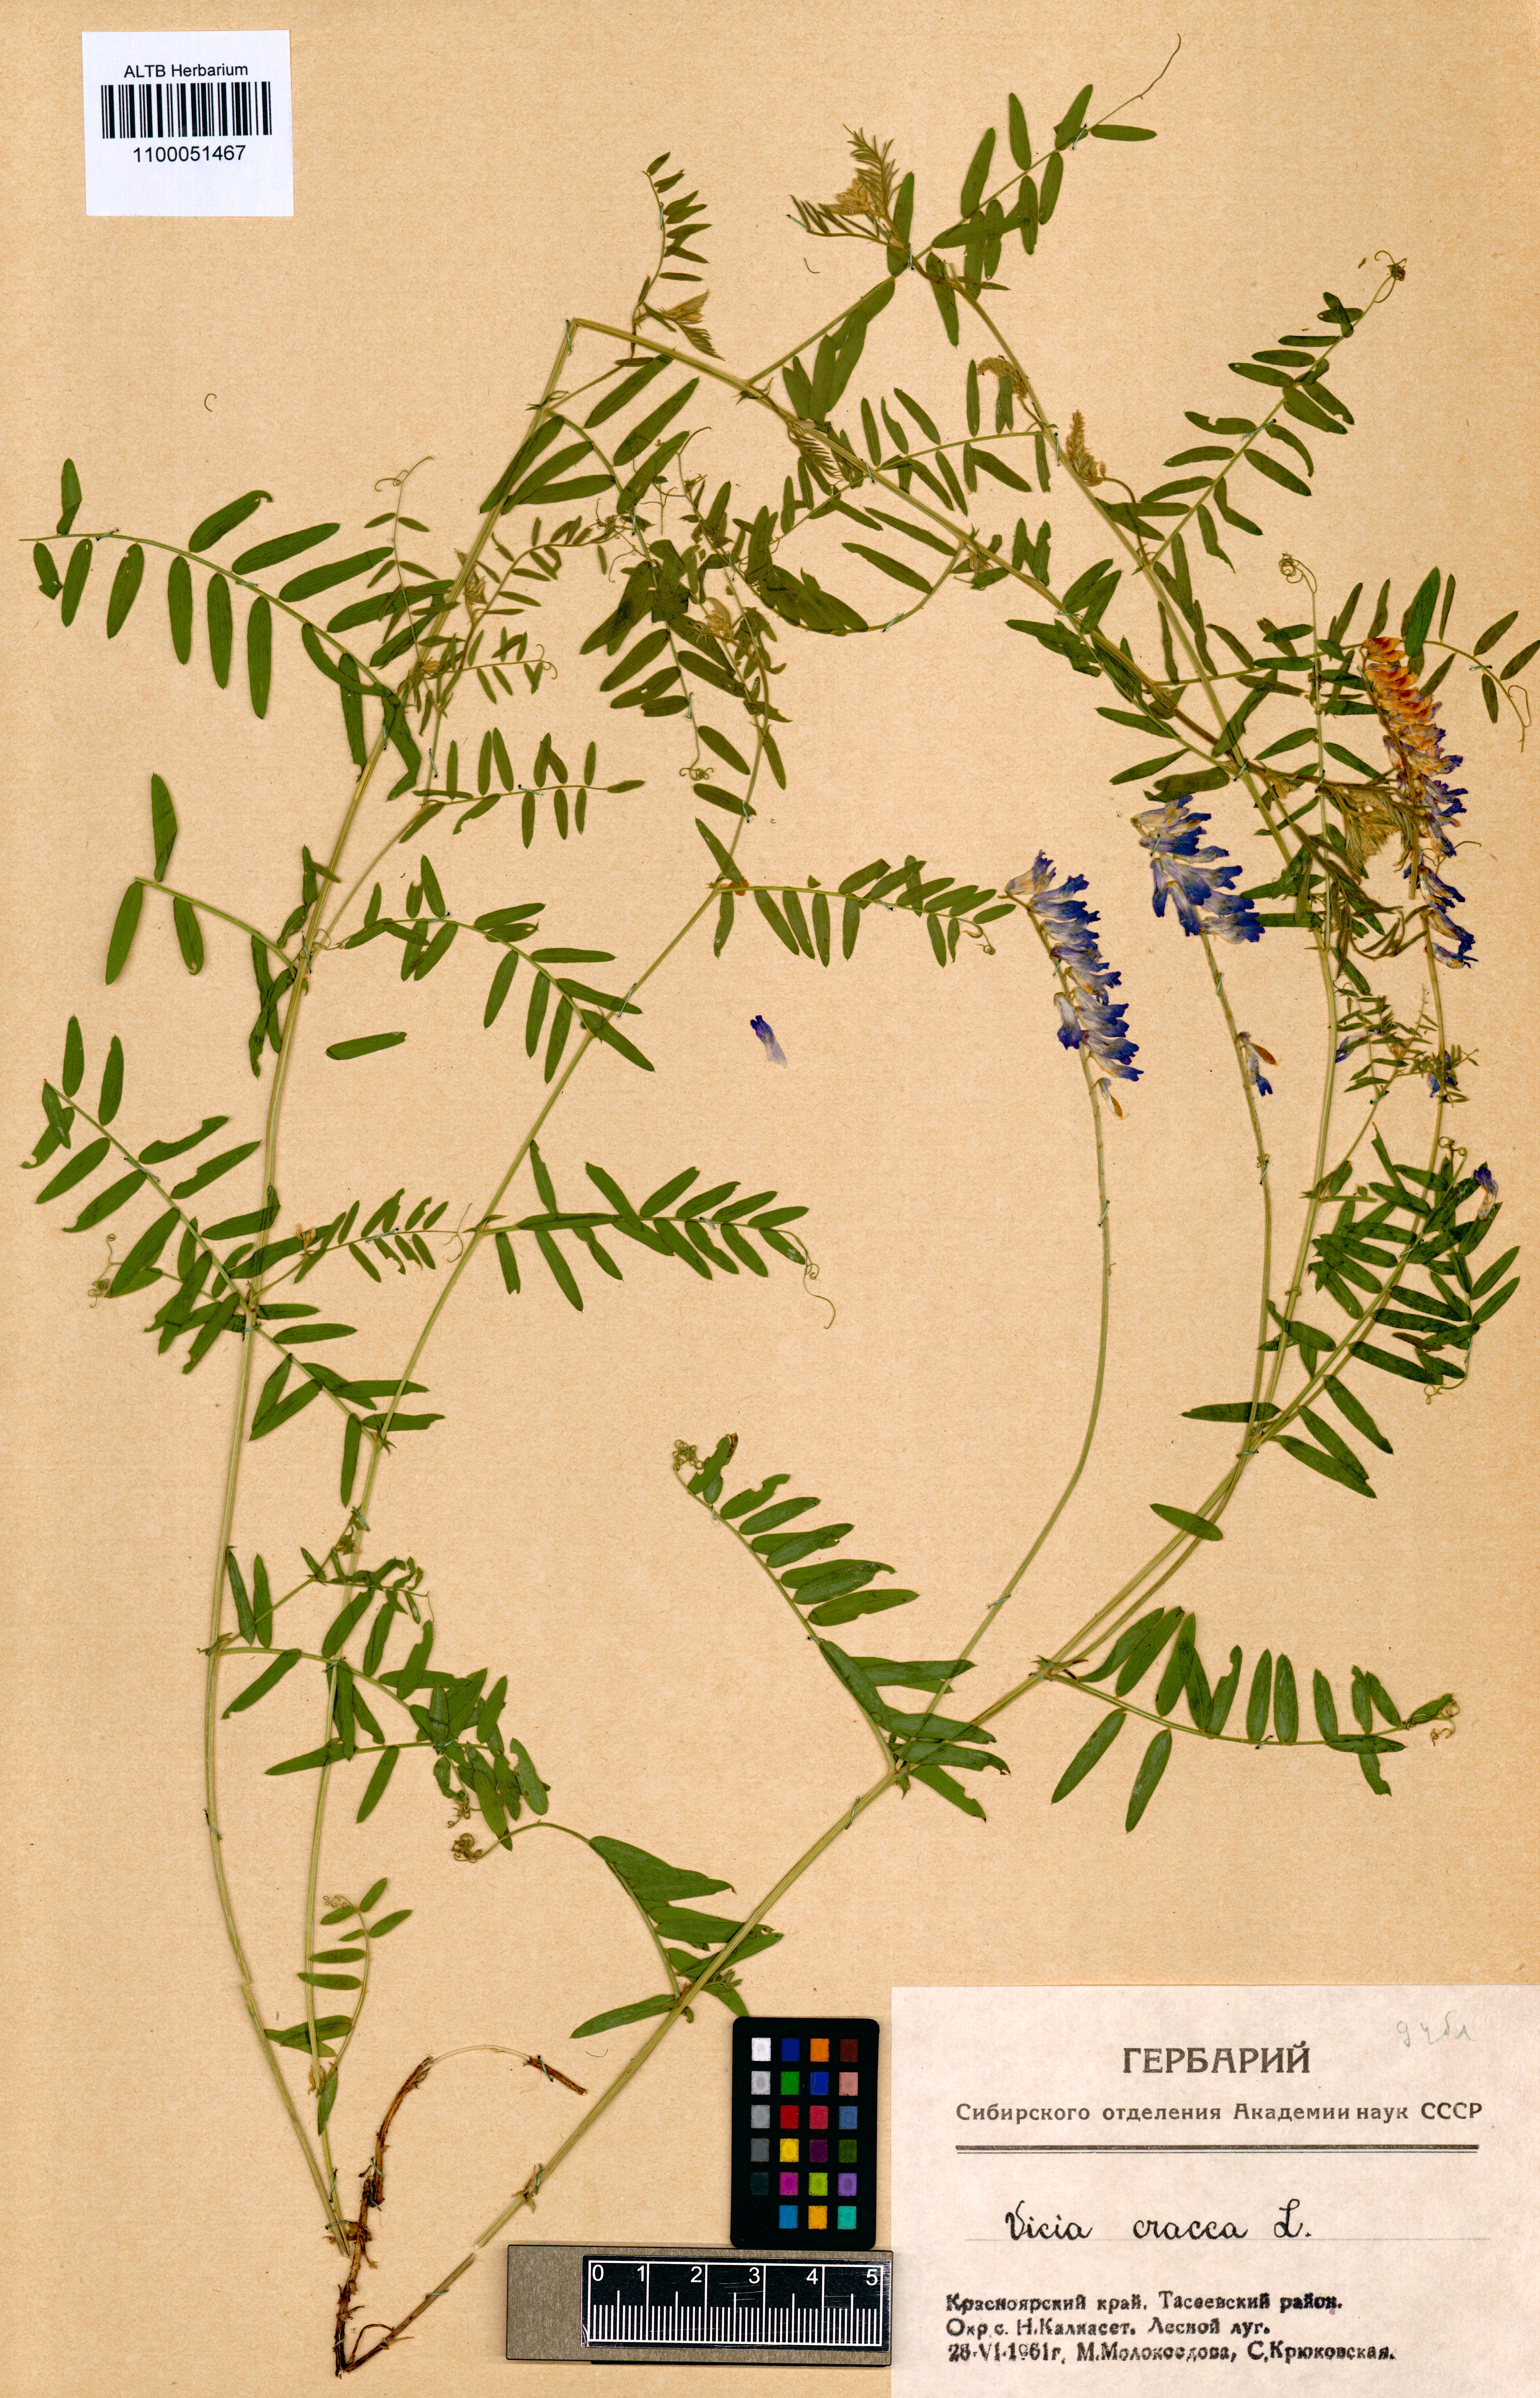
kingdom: Plantae
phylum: Tracheophyta
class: Magnoliopsida
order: Fabales
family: Fabaceae
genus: Vicia
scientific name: Vicia cracca
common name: Bird vetch
